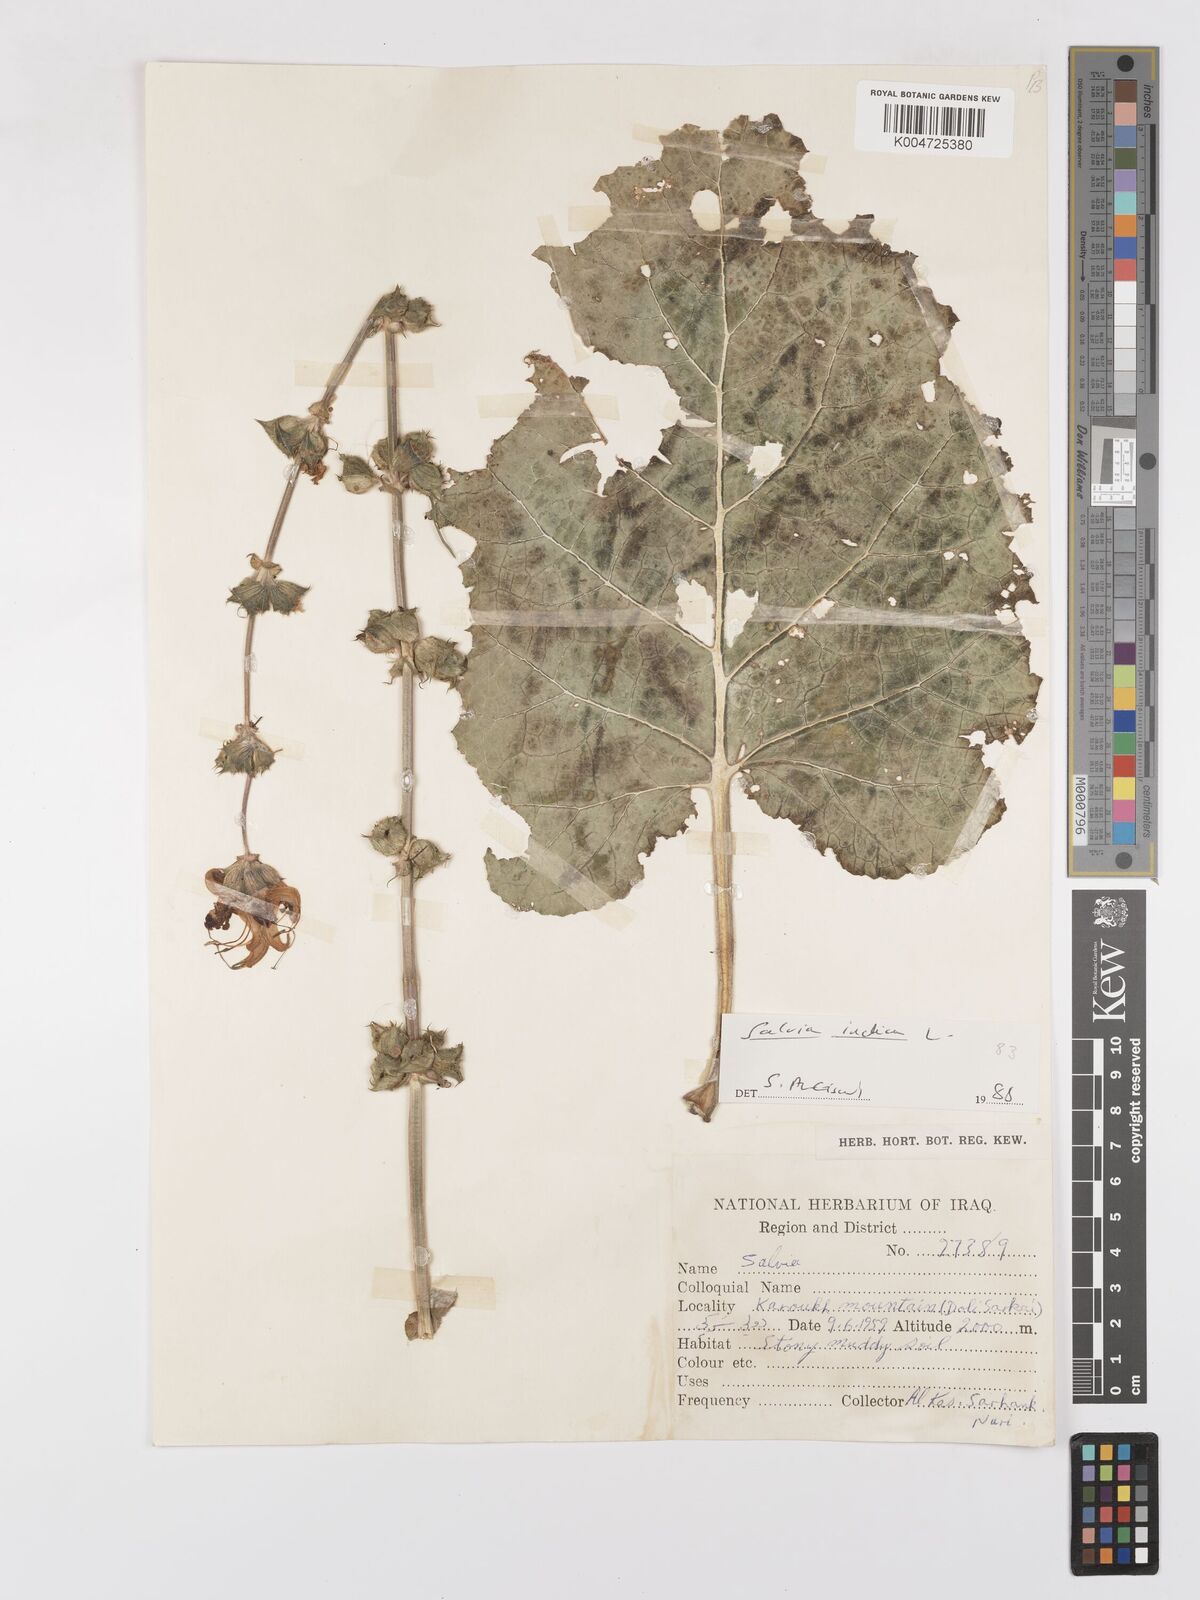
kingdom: Plantae
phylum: Tracheophyta
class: Magnoliopsida
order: Lamiales
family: Lamiaceae
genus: Salvia
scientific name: Salvia indica
